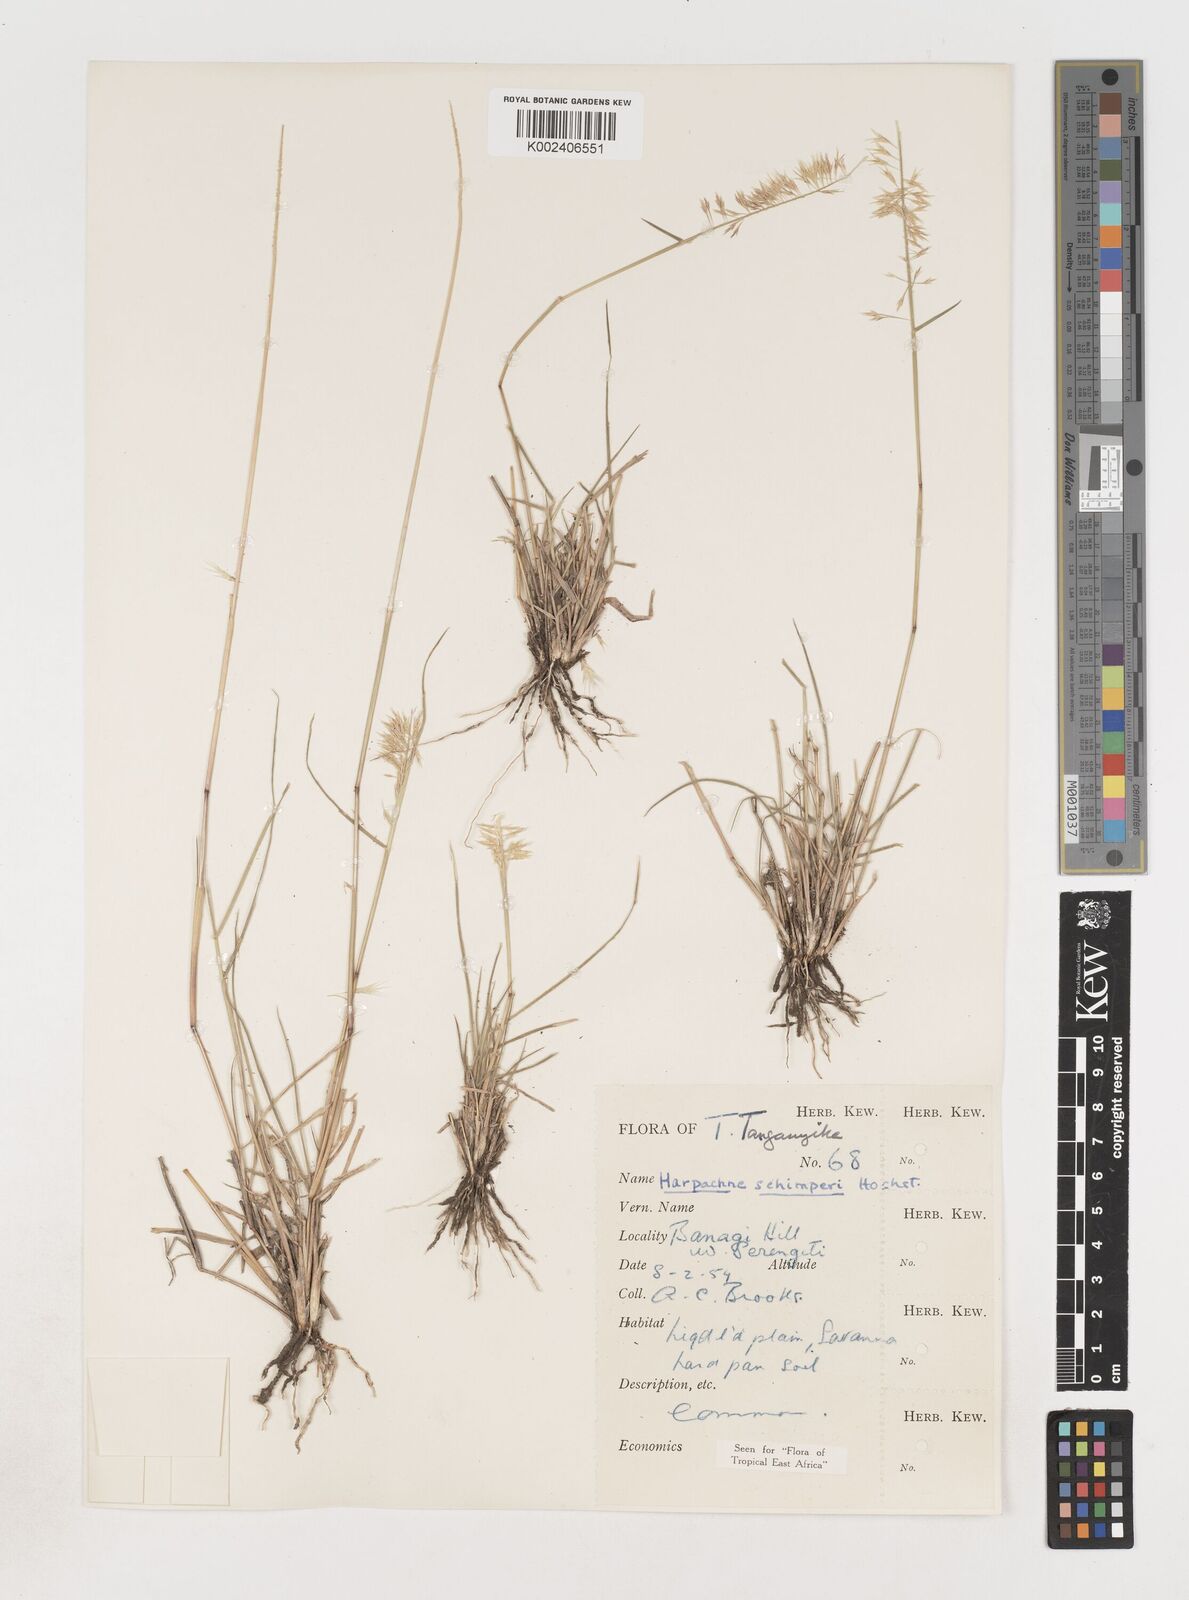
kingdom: Plantae
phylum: Tracheophyta
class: Liliopsida
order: Poales
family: Poaceae
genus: Harpachne
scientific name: Harpachne schimperi
